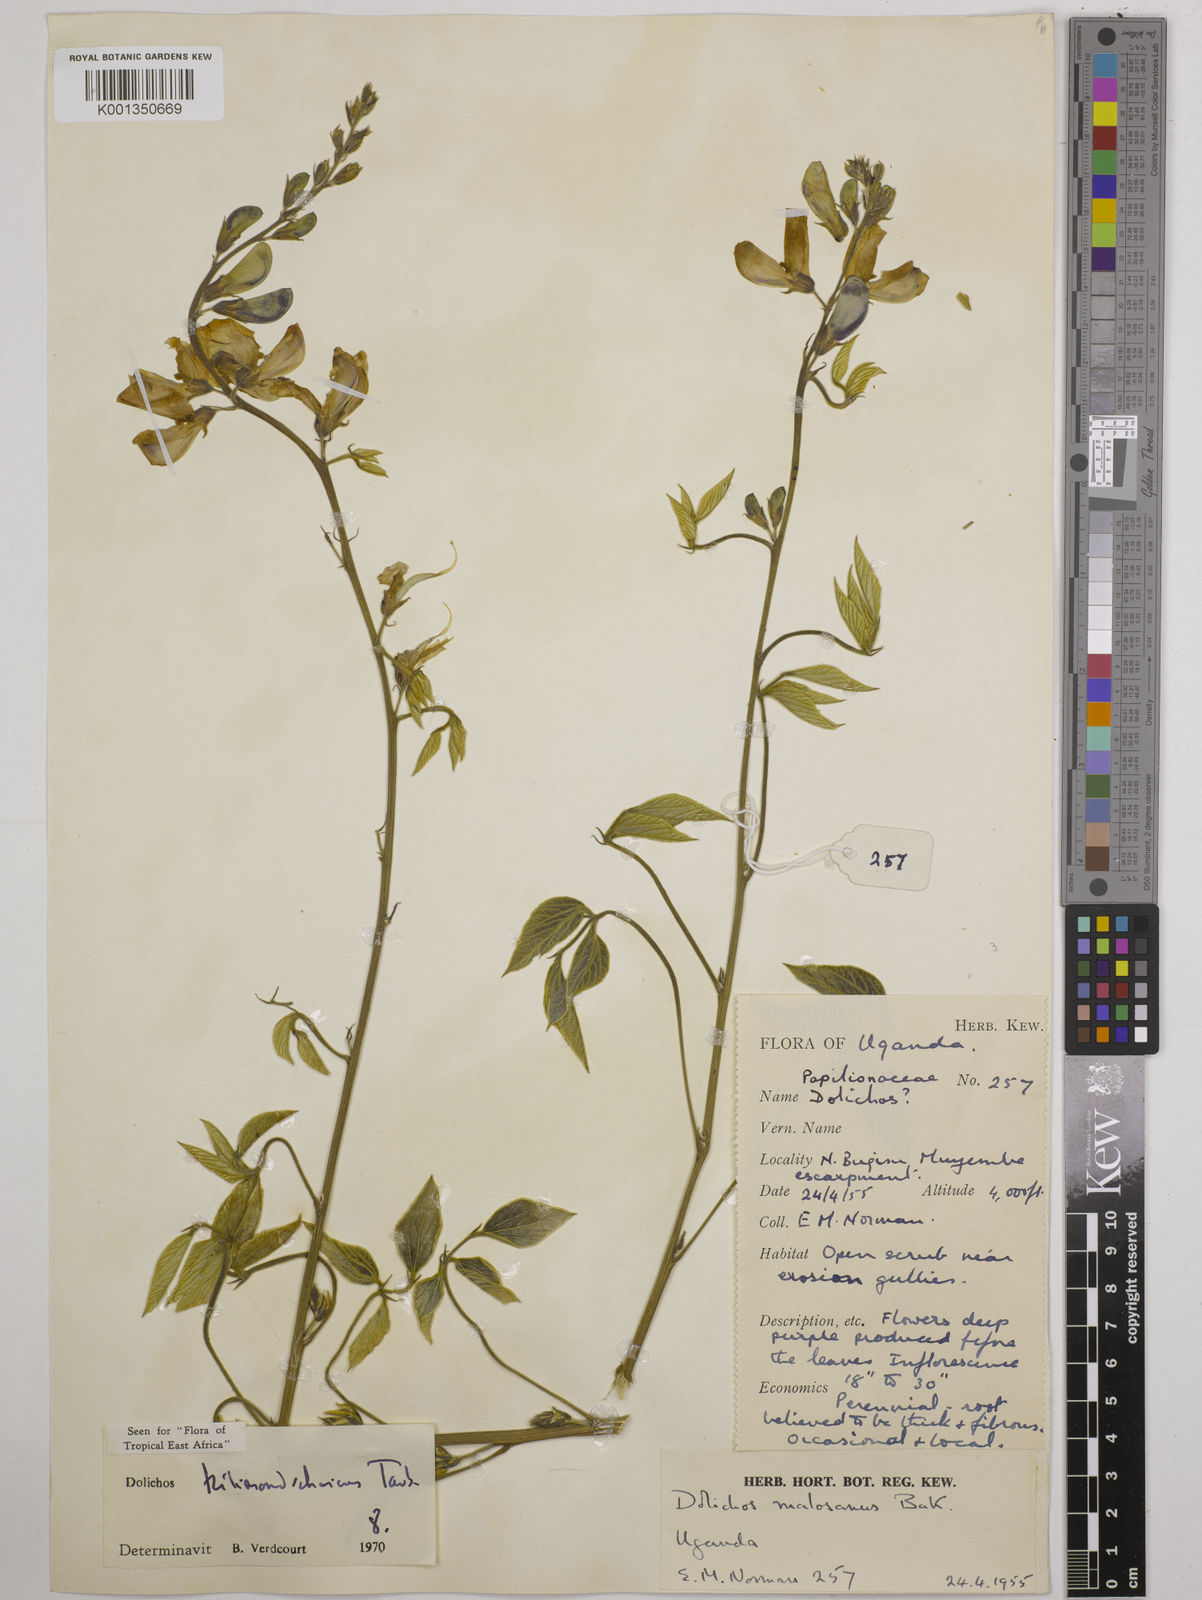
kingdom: Plantae
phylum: Tracheophyta
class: Magnoliopsida
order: Fabales
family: Fabaceae
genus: Dolichos
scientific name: Dolichos kilimandscharicus
